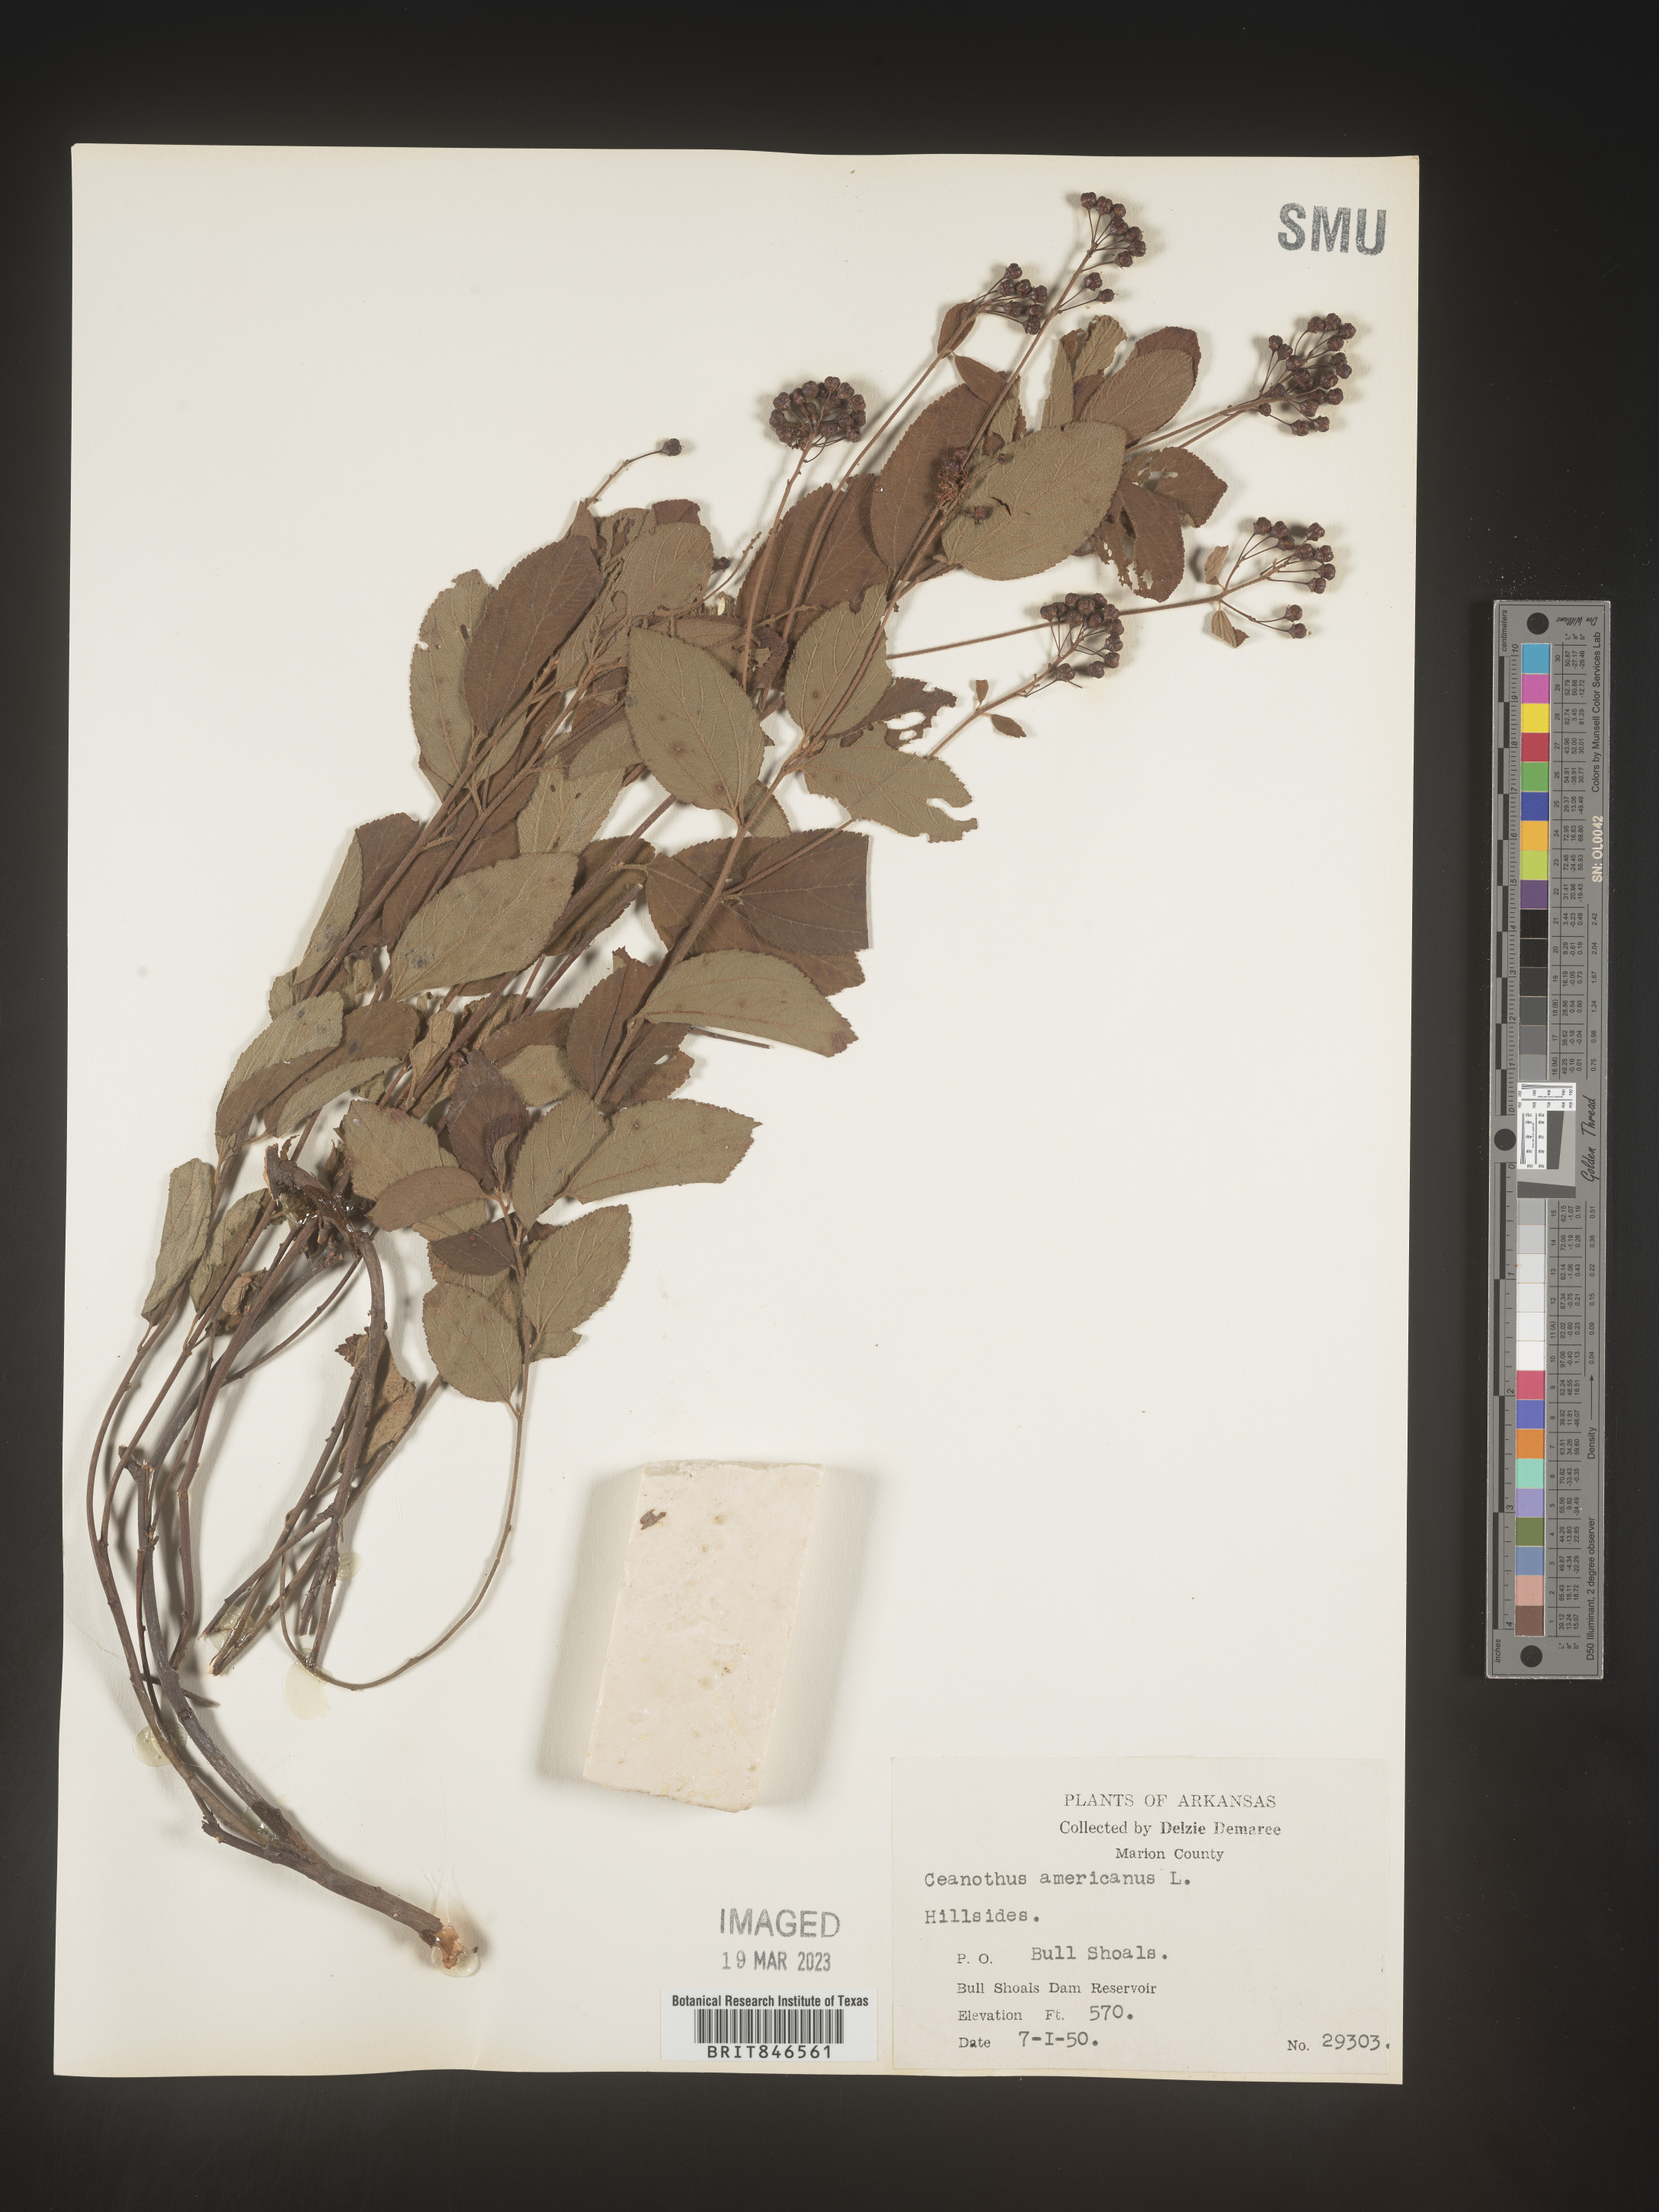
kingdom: Plantae
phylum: Tracheophyta
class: Magnoliopsida
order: Rosales
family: Rhamnaceae
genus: Ceanothus
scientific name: Ceanothus americanus
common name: Redroot
